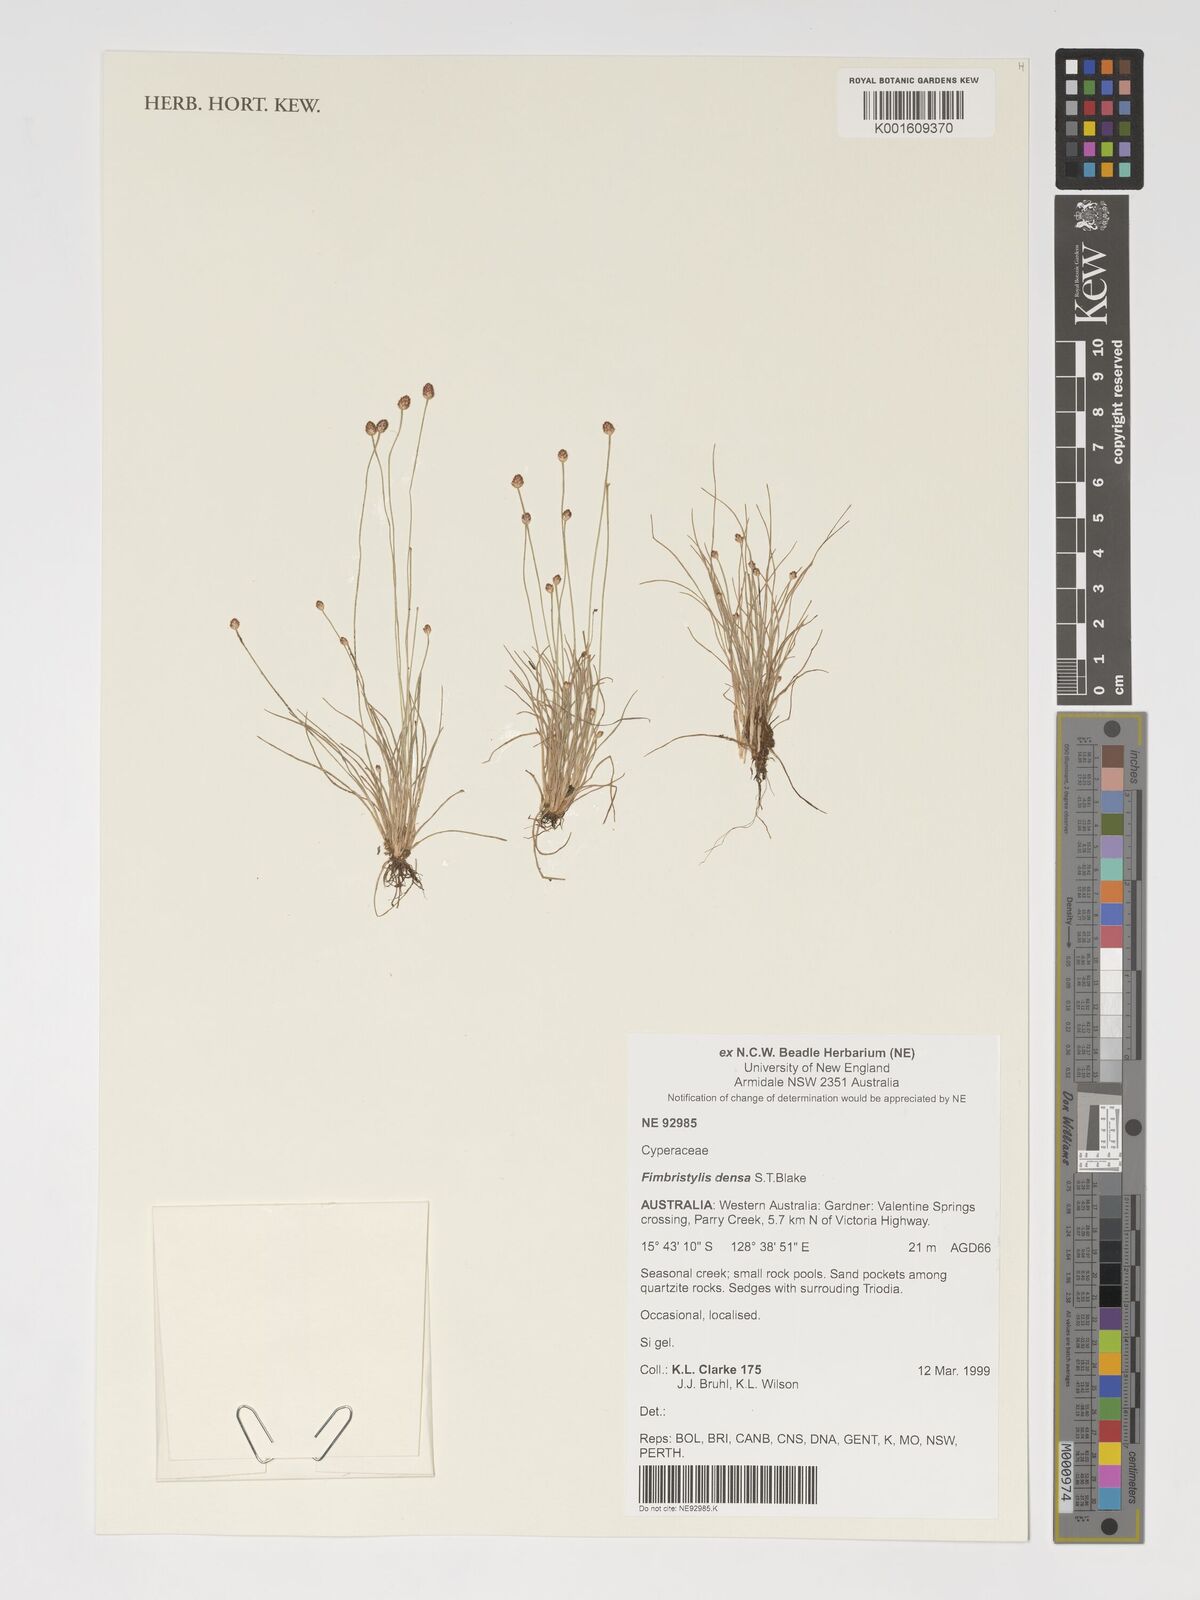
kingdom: Plantae
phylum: Tracheophyta
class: Liliopsida
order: Poales
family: Cyperaceae
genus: Fimbristylis
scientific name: Fimbristylis densa
